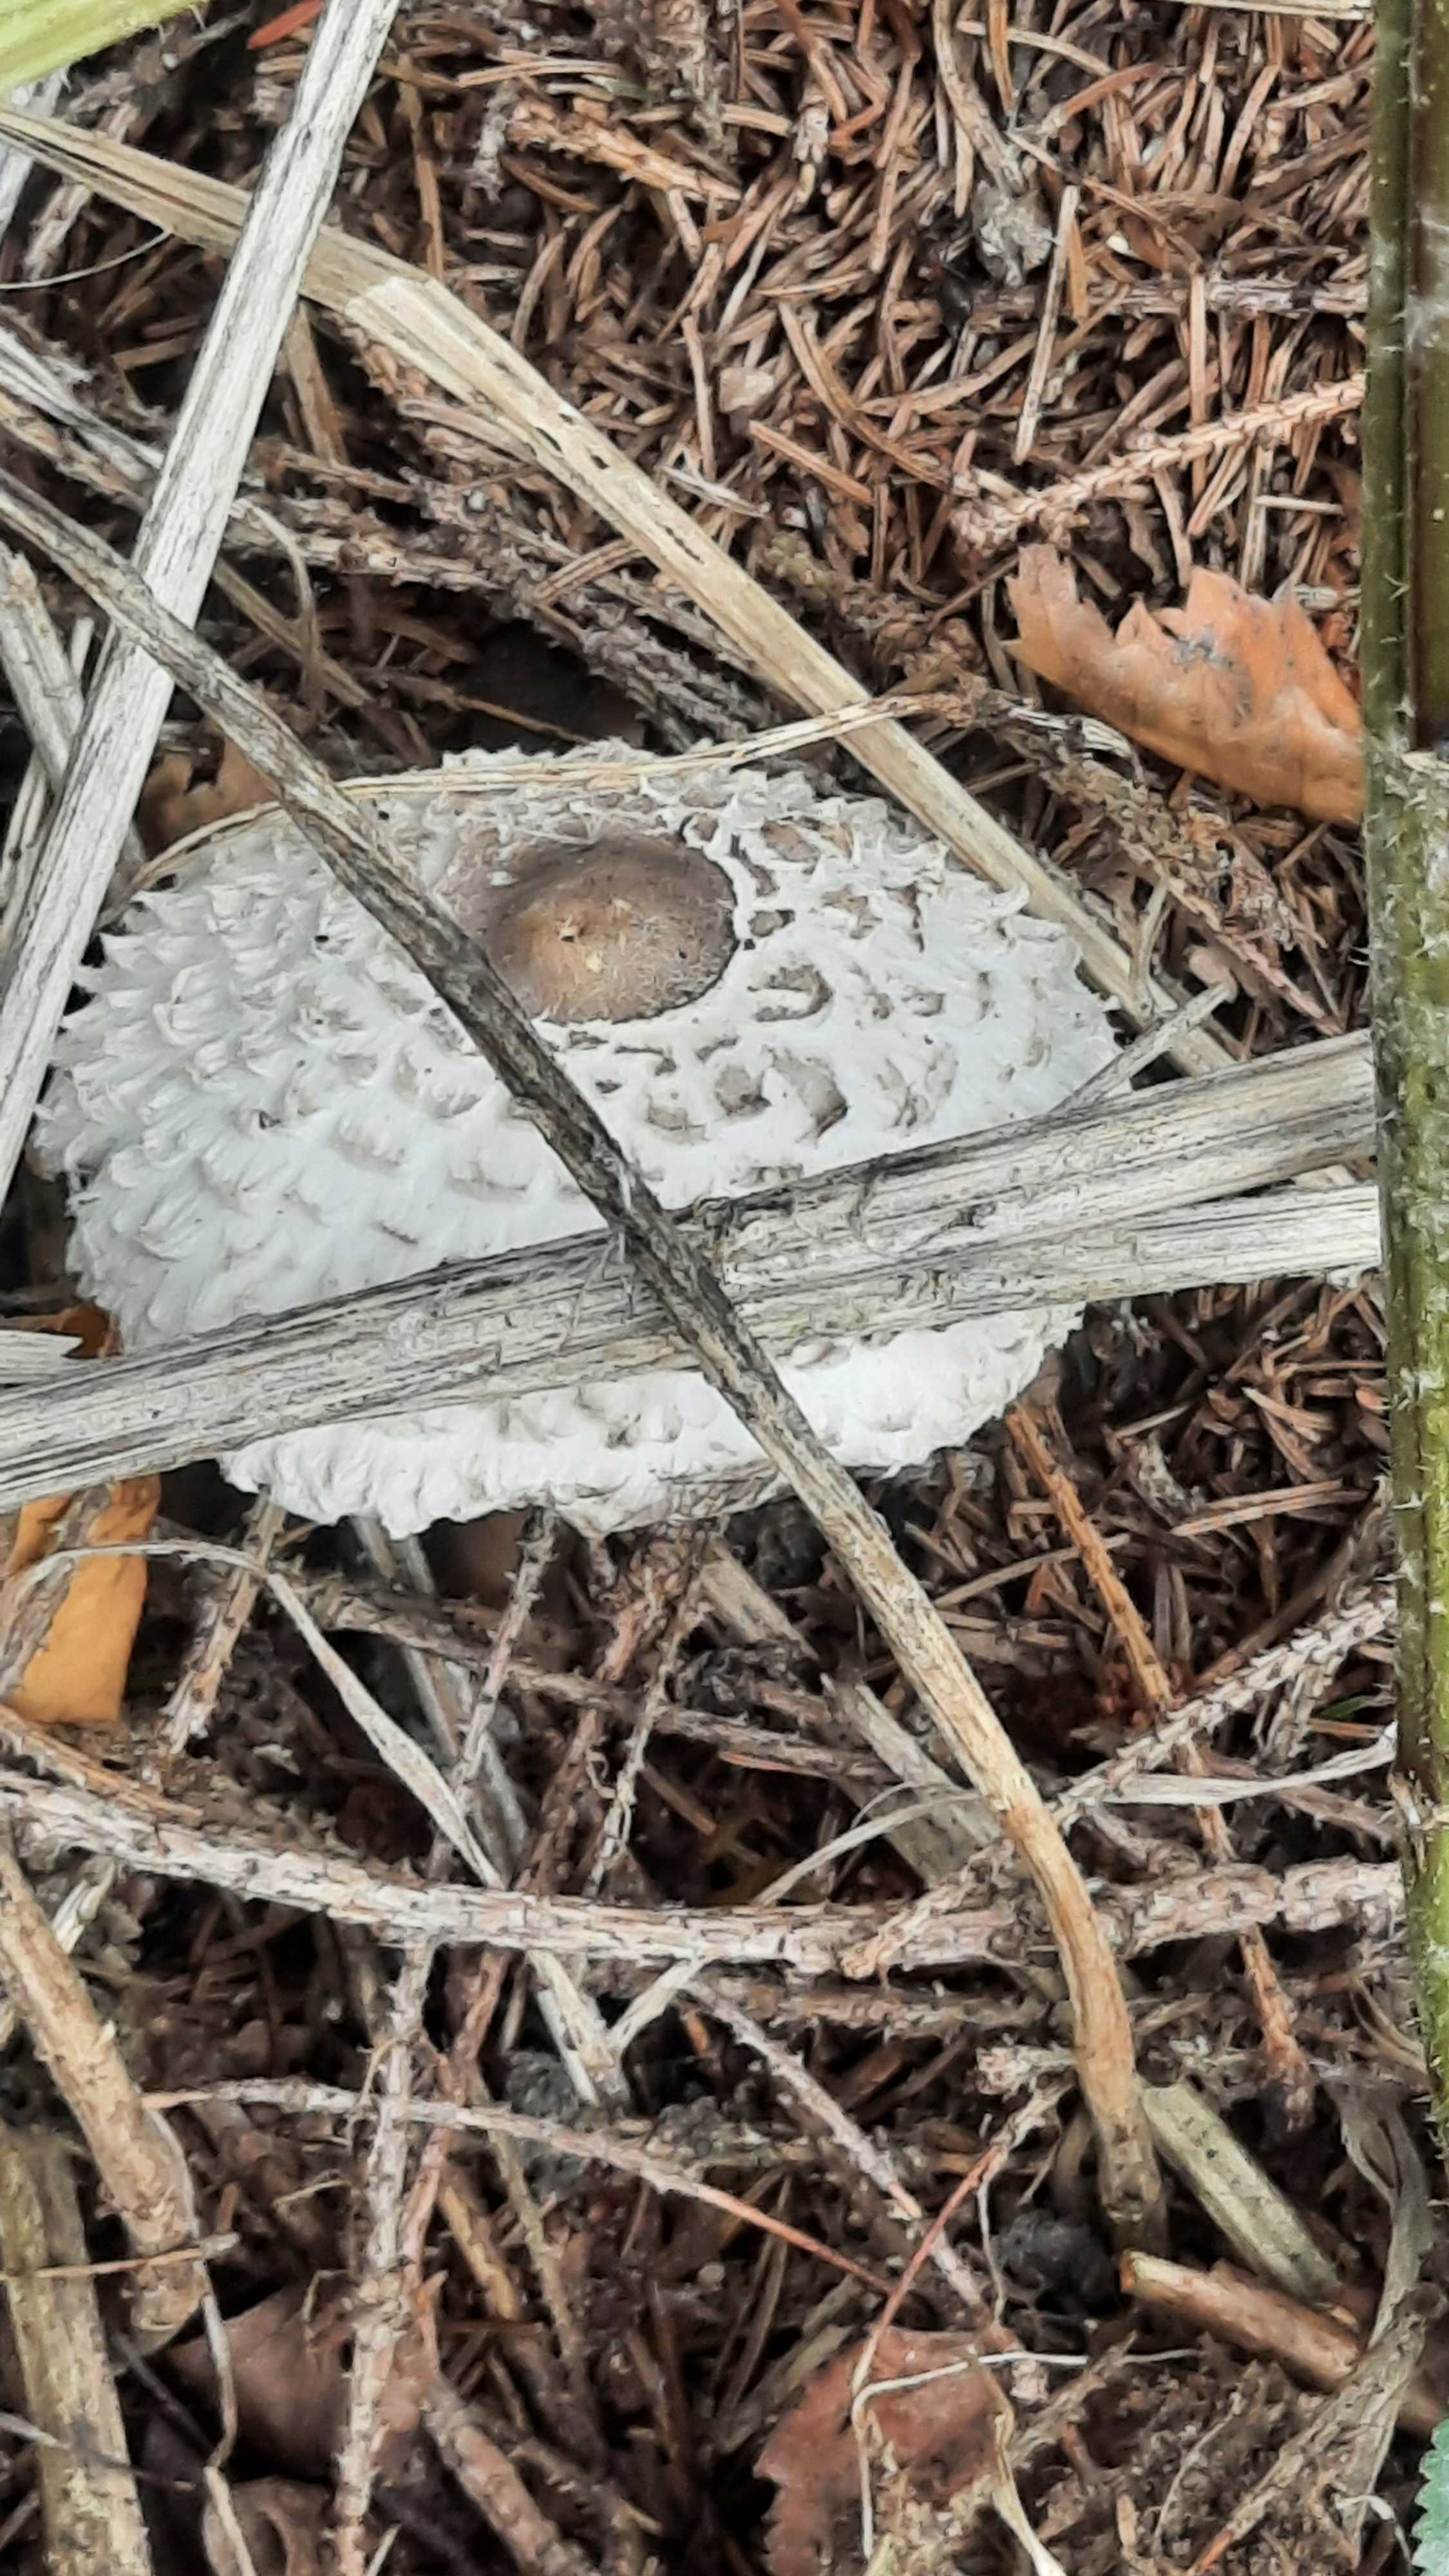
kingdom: Fungi
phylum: Basidiomycota
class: Agaricomycetes
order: Agaricales
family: Agaricaceae
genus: Leucoagaricus
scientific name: Leucoagaricus nympharum
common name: gran-silkehat
